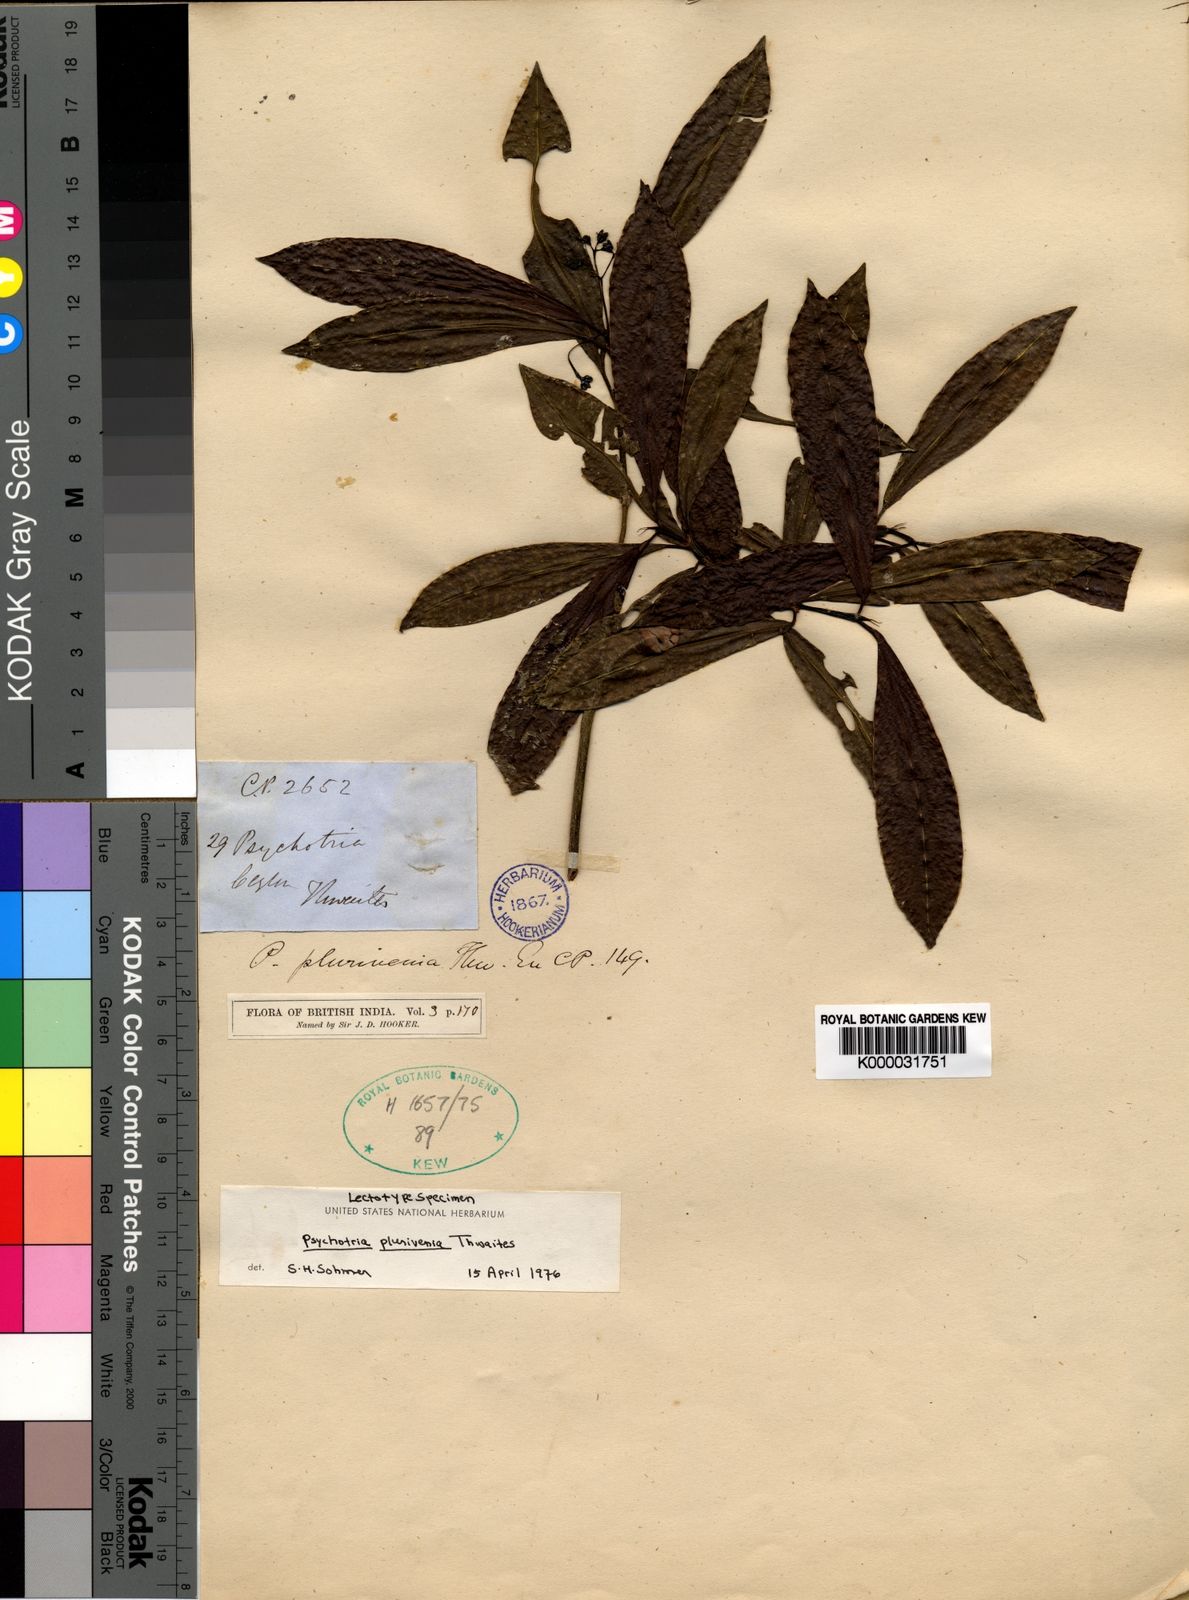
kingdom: Plantae
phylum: Tracheophyta
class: Magnoliopsida
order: Gentianales
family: Rubiaceae
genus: Psychotria
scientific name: Psychotria plurivenia
